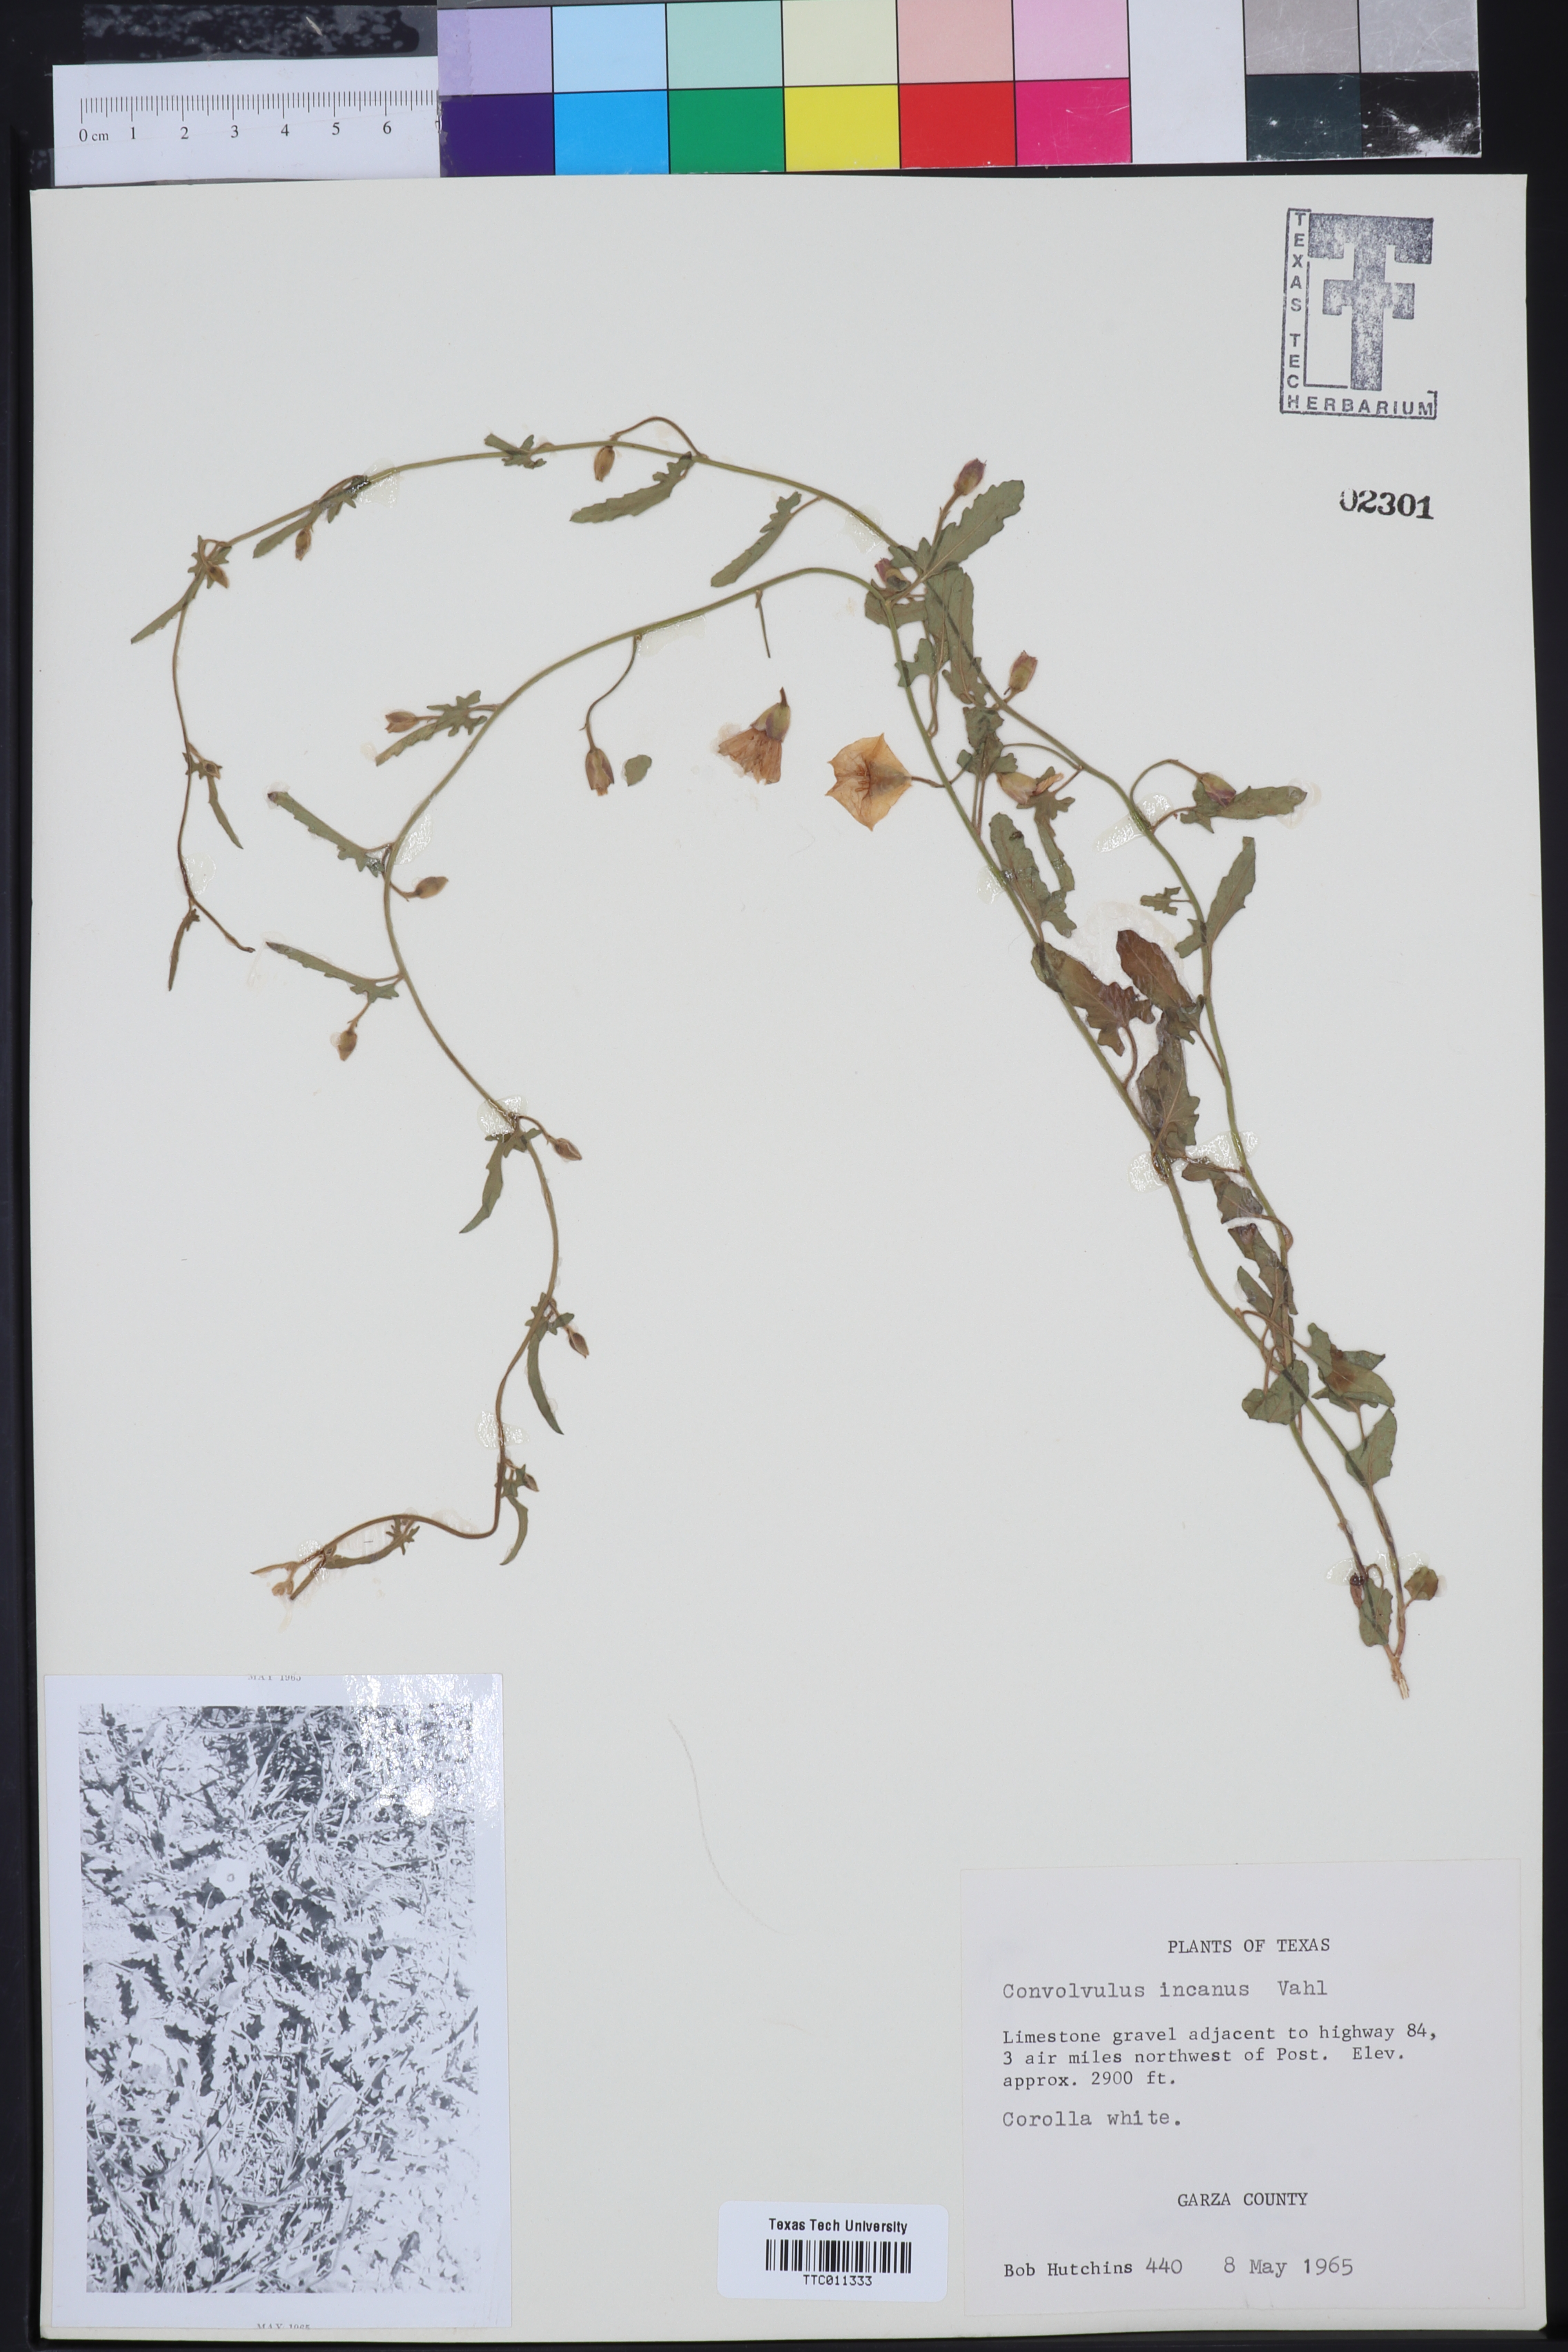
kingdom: Plantae
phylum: Tracheophyta
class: Magnoliopsida
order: Solanales
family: Convolvulaceae
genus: Convolvulus
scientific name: Convolvulus hermanniae
